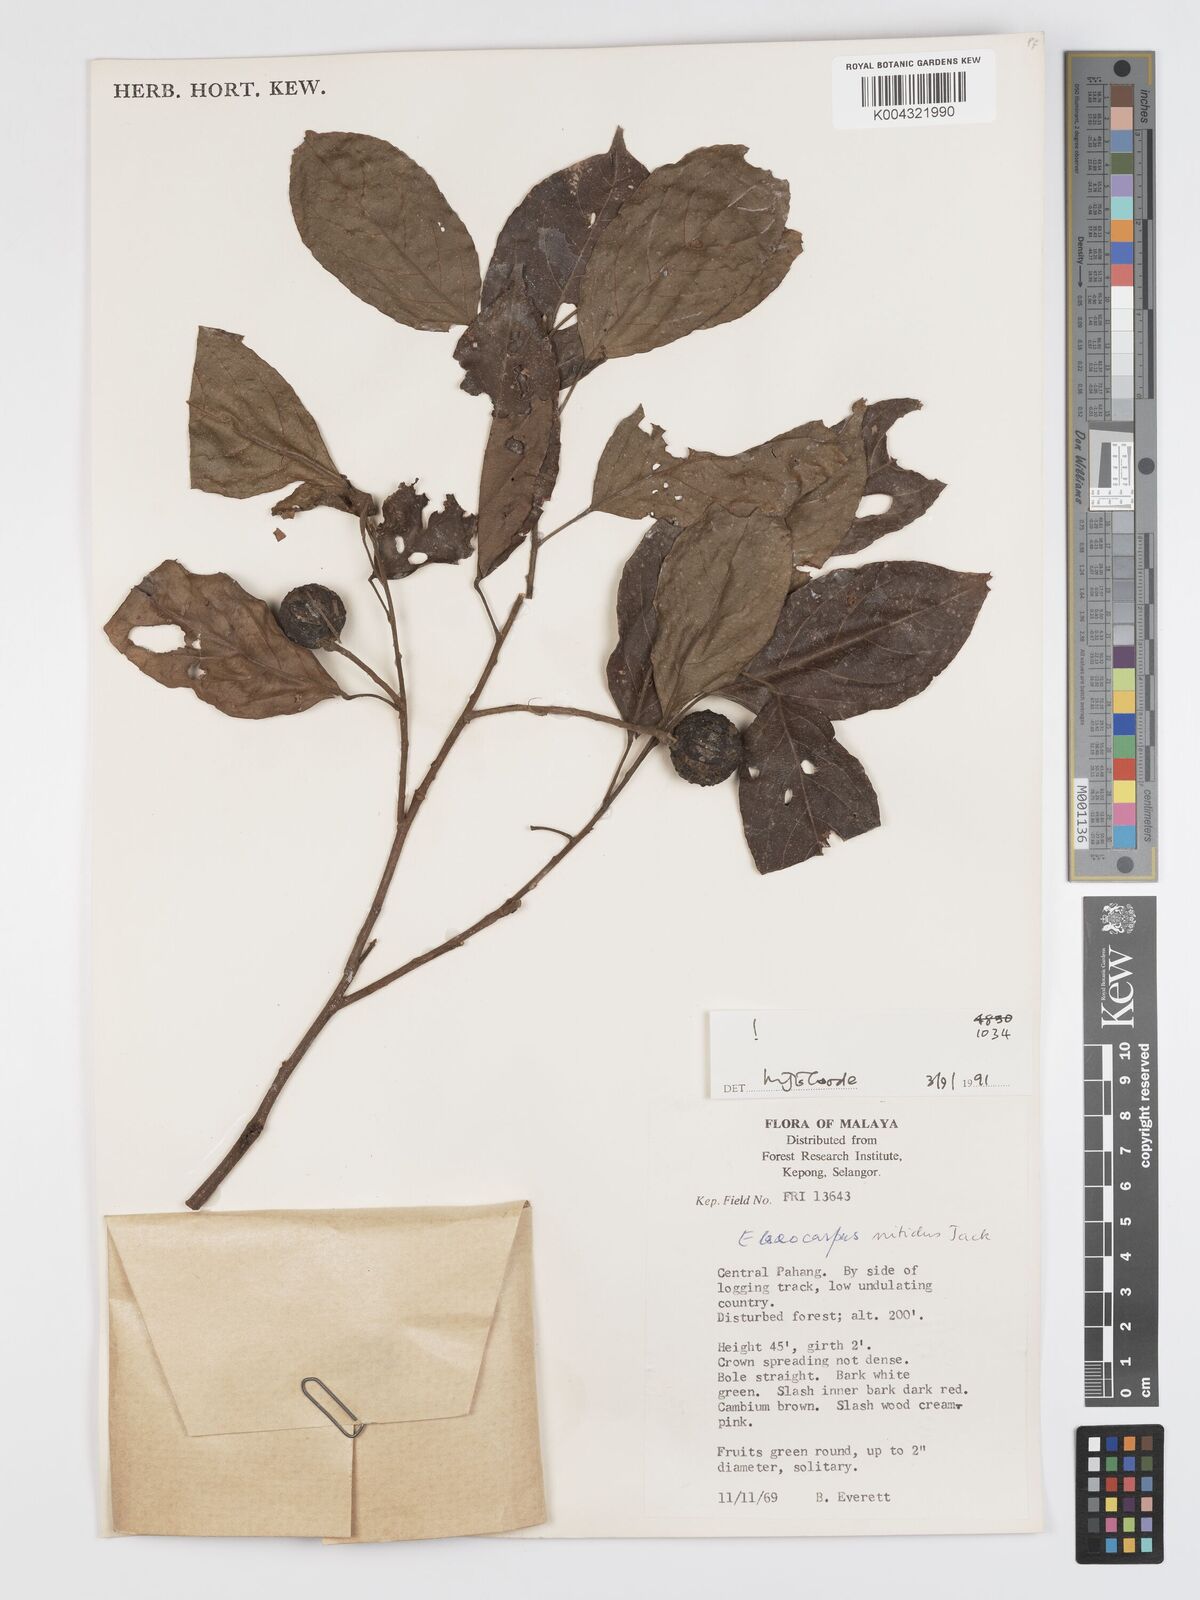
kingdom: Plantae
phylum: Tracheophyta
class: Magnoliopsida
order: Oxalidales
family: Elaeocarpaceae
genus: Elaeocarpus
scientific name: Elaeocarpus nitidus
